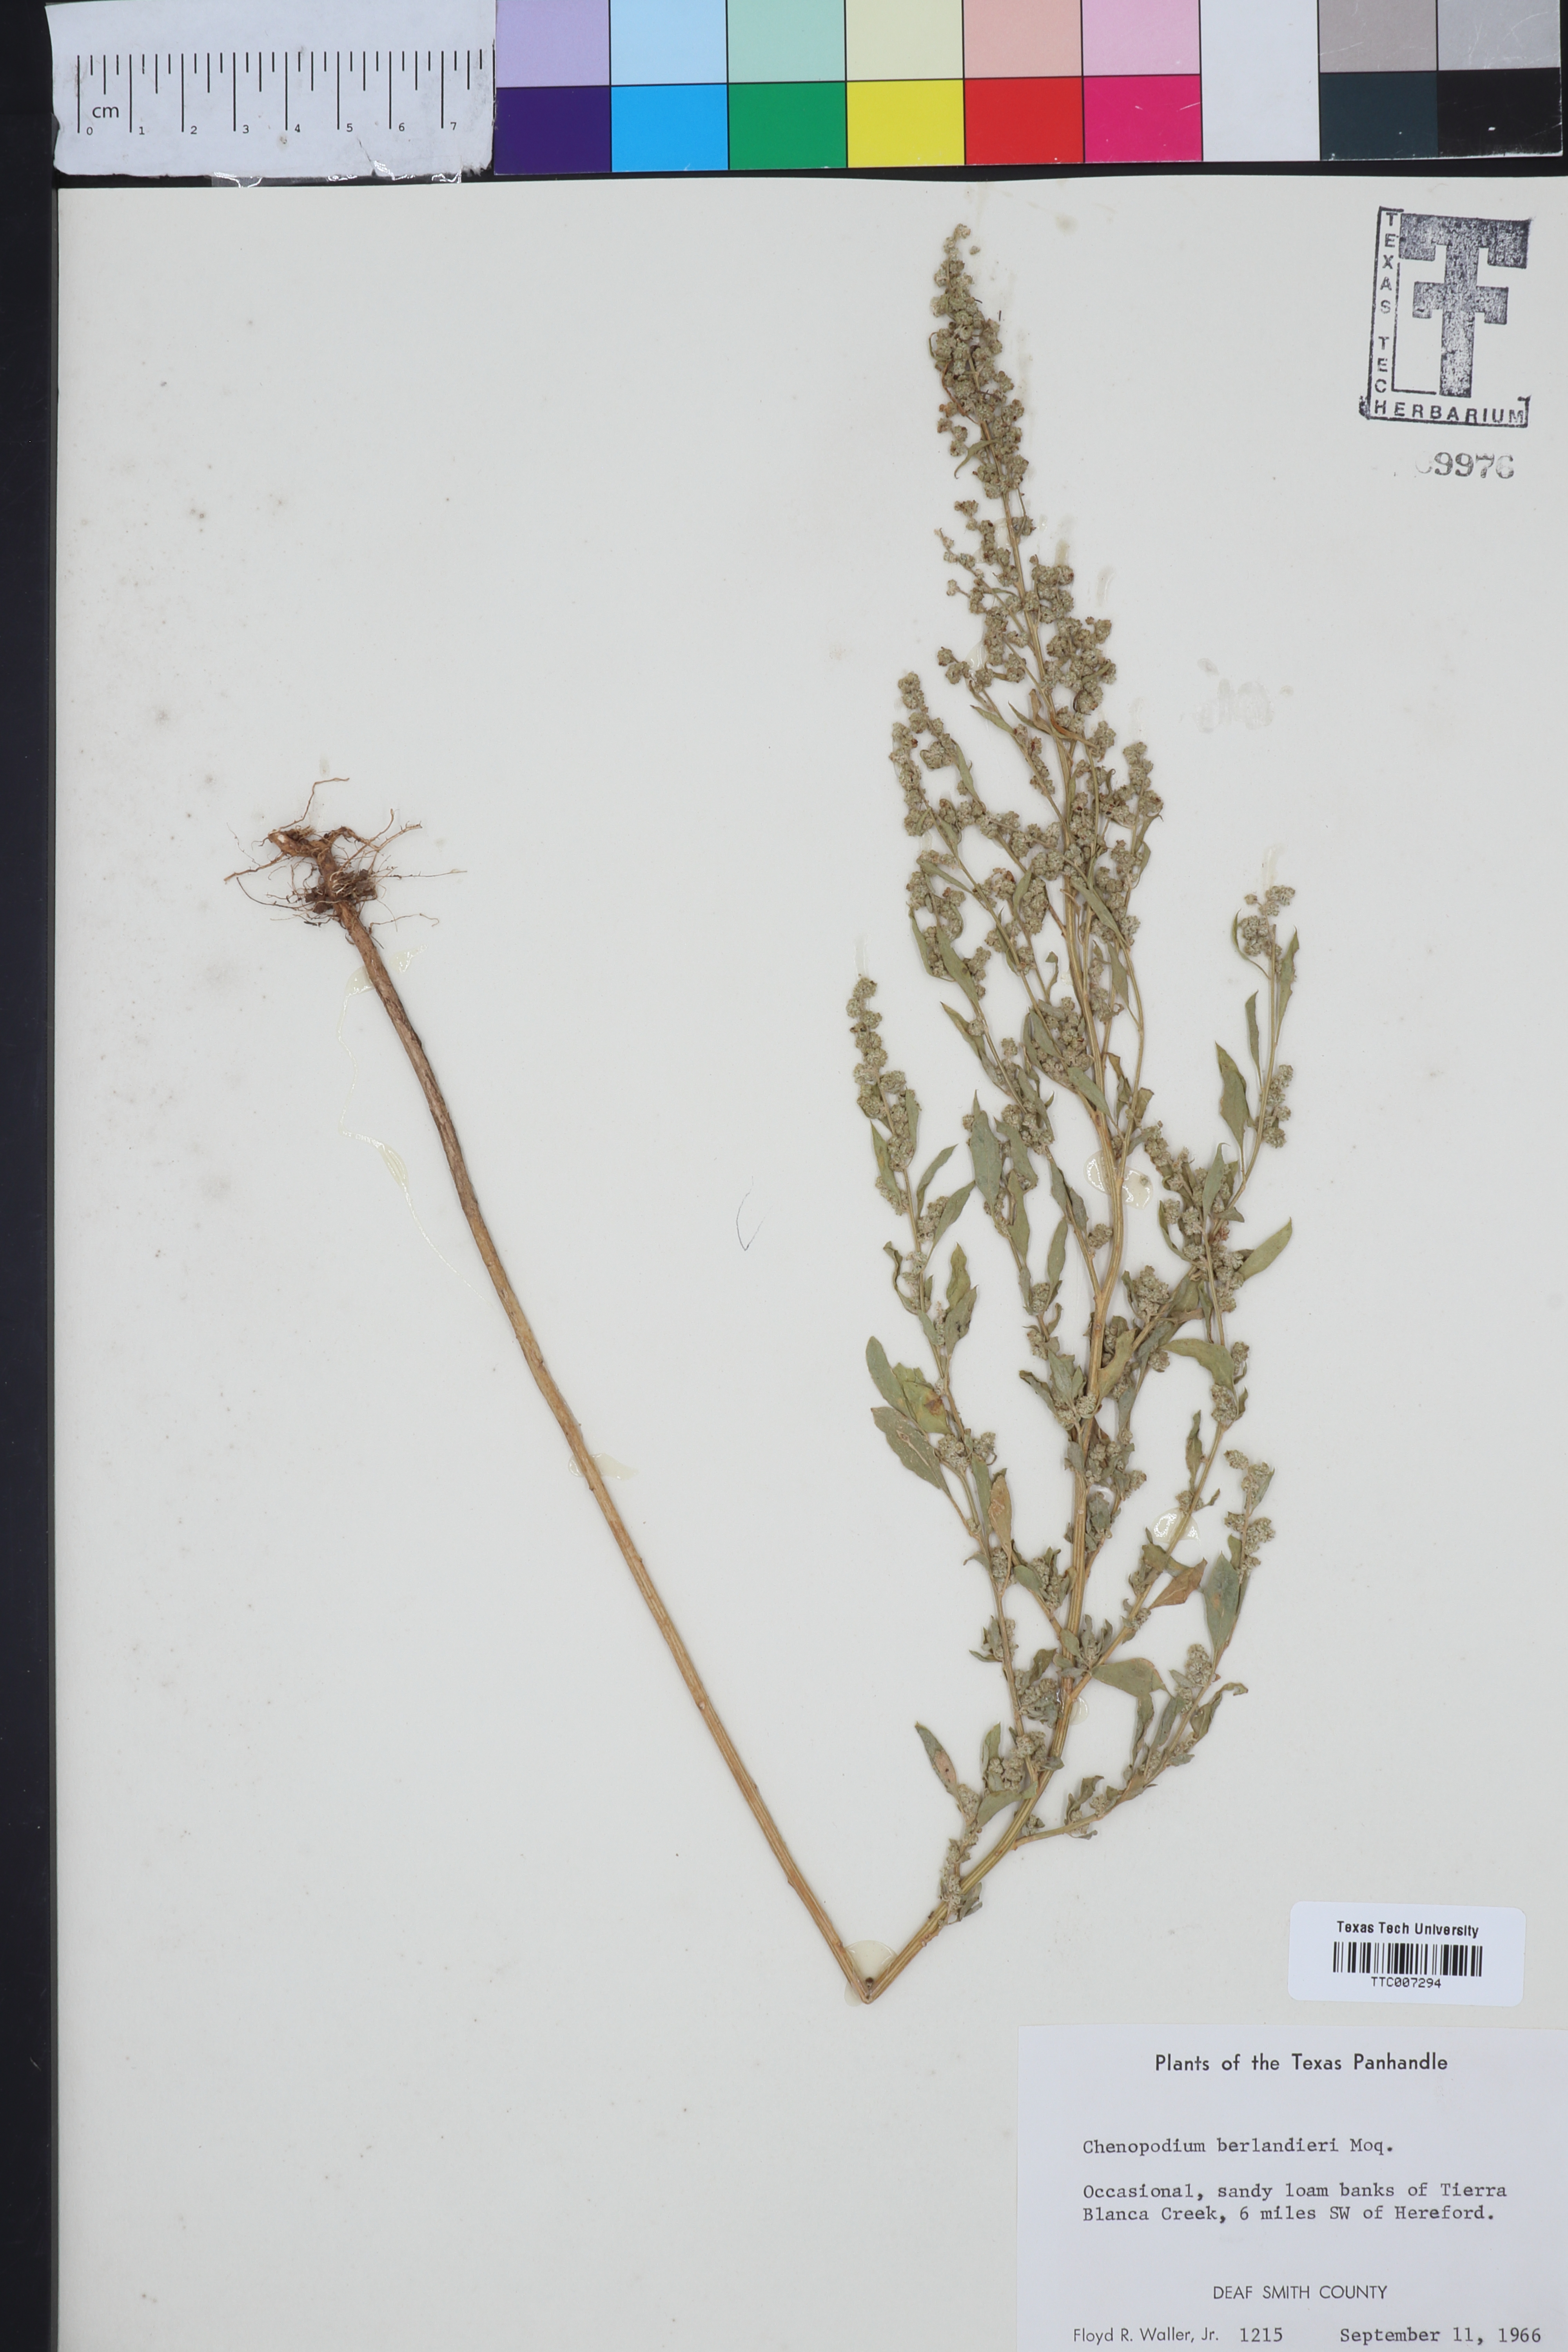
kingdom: Plantae
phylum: Tracheophyta
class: Magnoliopsida
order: Caryophyllales
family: Amaranthaceae
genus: Chenopodium
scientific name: Chenopodium berlandieri
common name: Pit-seed goosefoot
